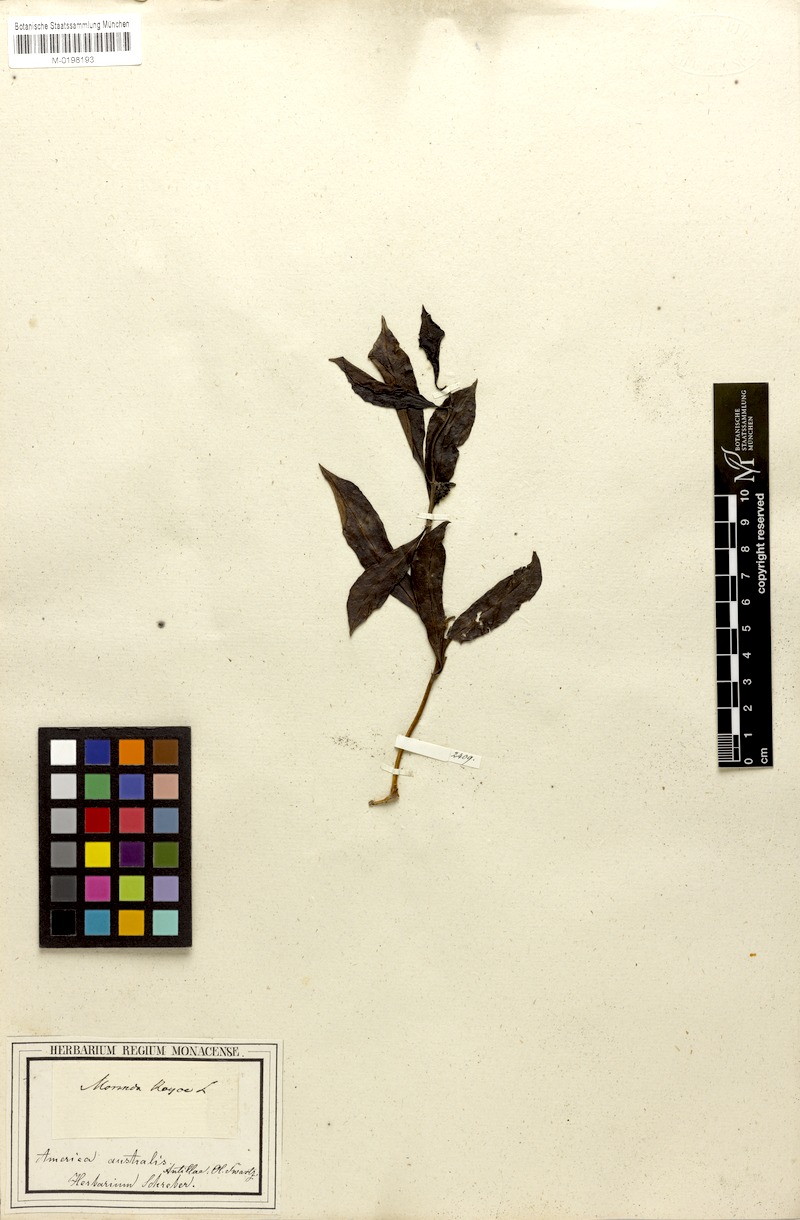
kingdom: Plantae
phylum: Tracheophyta
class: Magnoliopsida
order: Gentianales
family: Rubiaceae
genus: Morinda
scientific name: Morinda royoc
